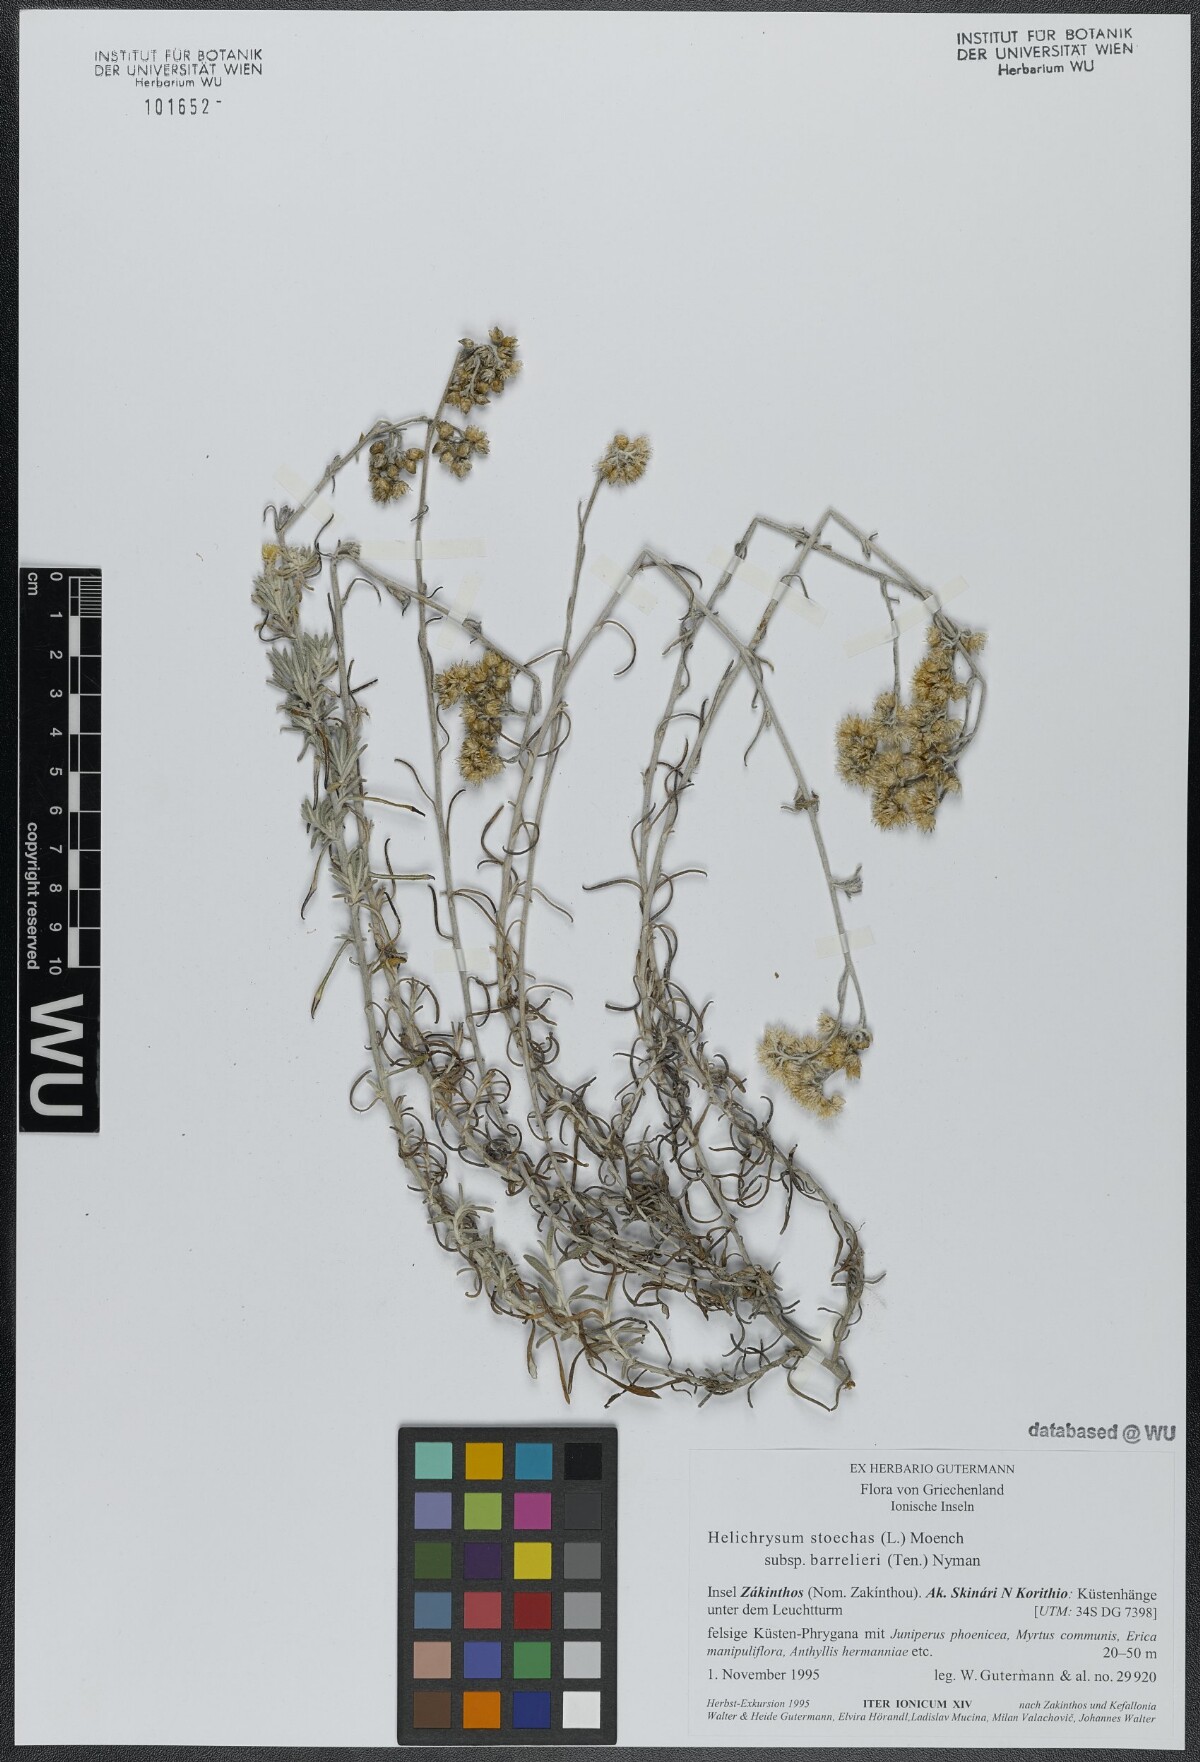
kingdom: Plantae
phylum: Tracheophyta
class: Magnoliopsida
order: Asterales
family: Asteraceae
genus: Helichrysum
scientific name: Helichrysum stoechas
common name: Goldilocks
